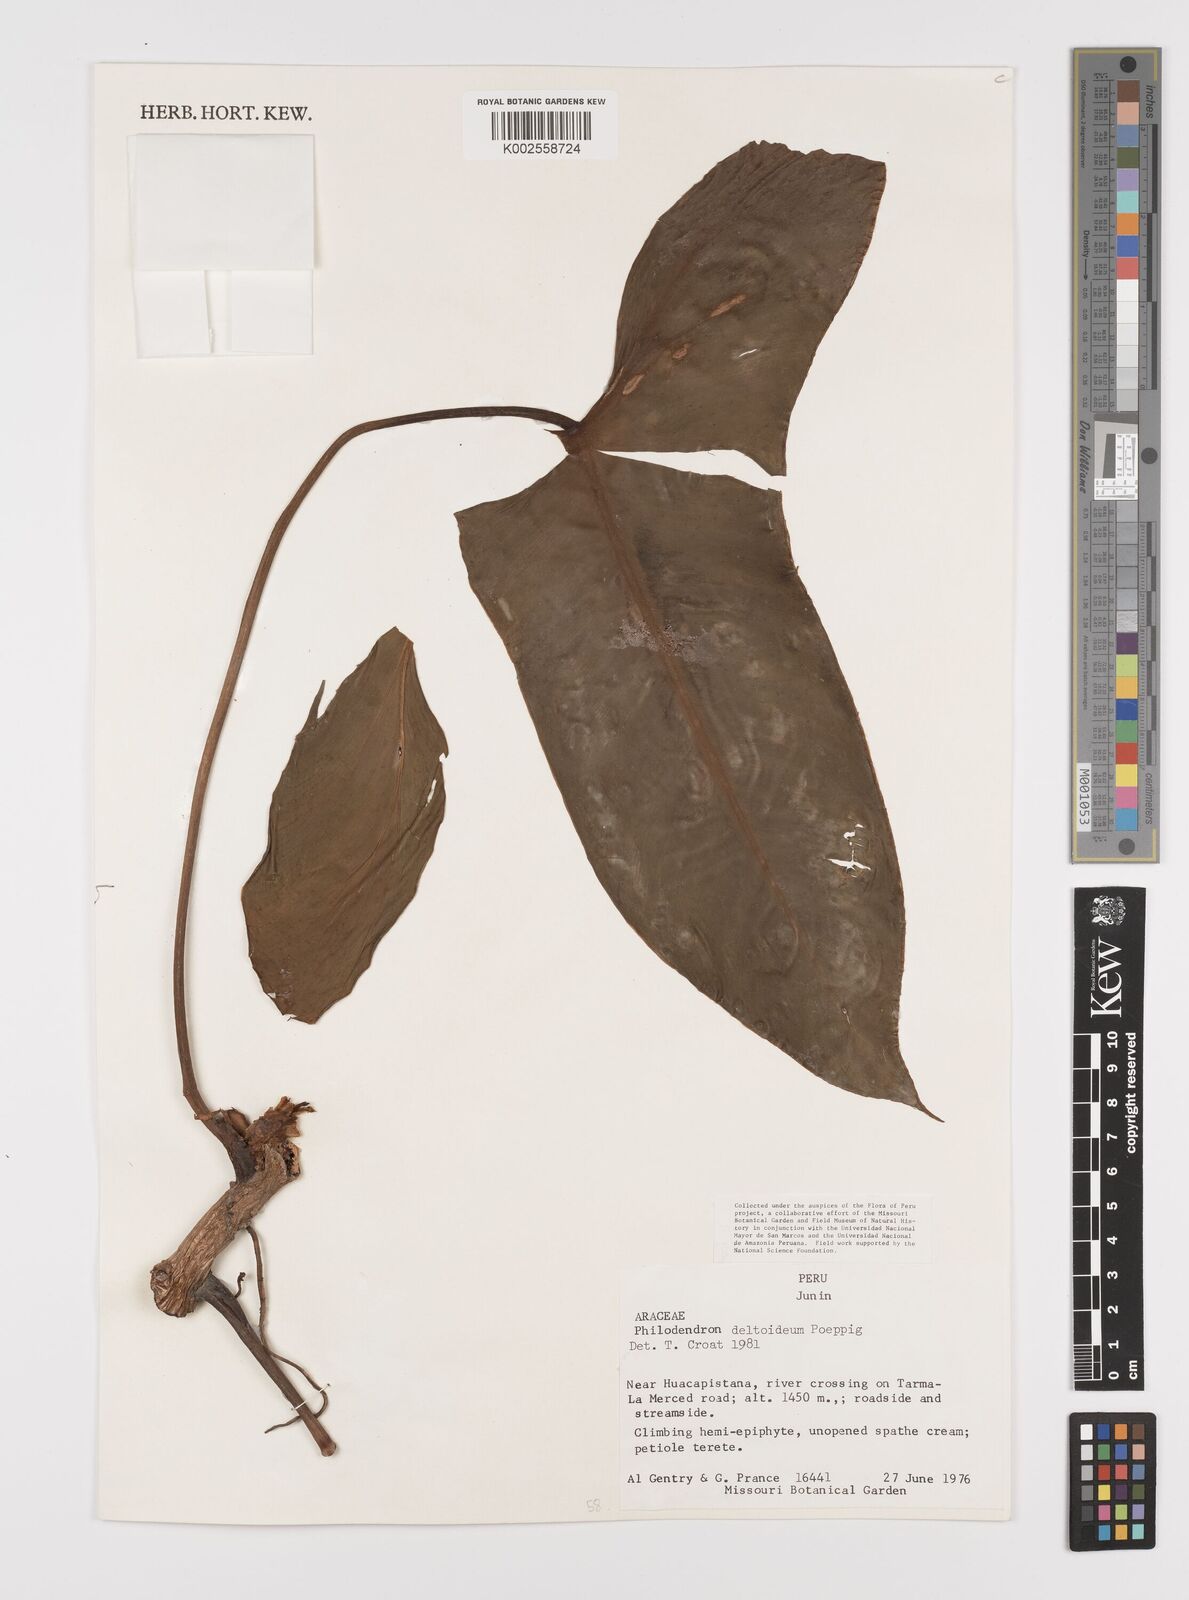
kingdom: Plantae
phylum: Tracheophyta
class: Liliopsida
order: Alismatales
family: Araceae
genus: Philodendron
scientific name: Philodendron deltoideum
